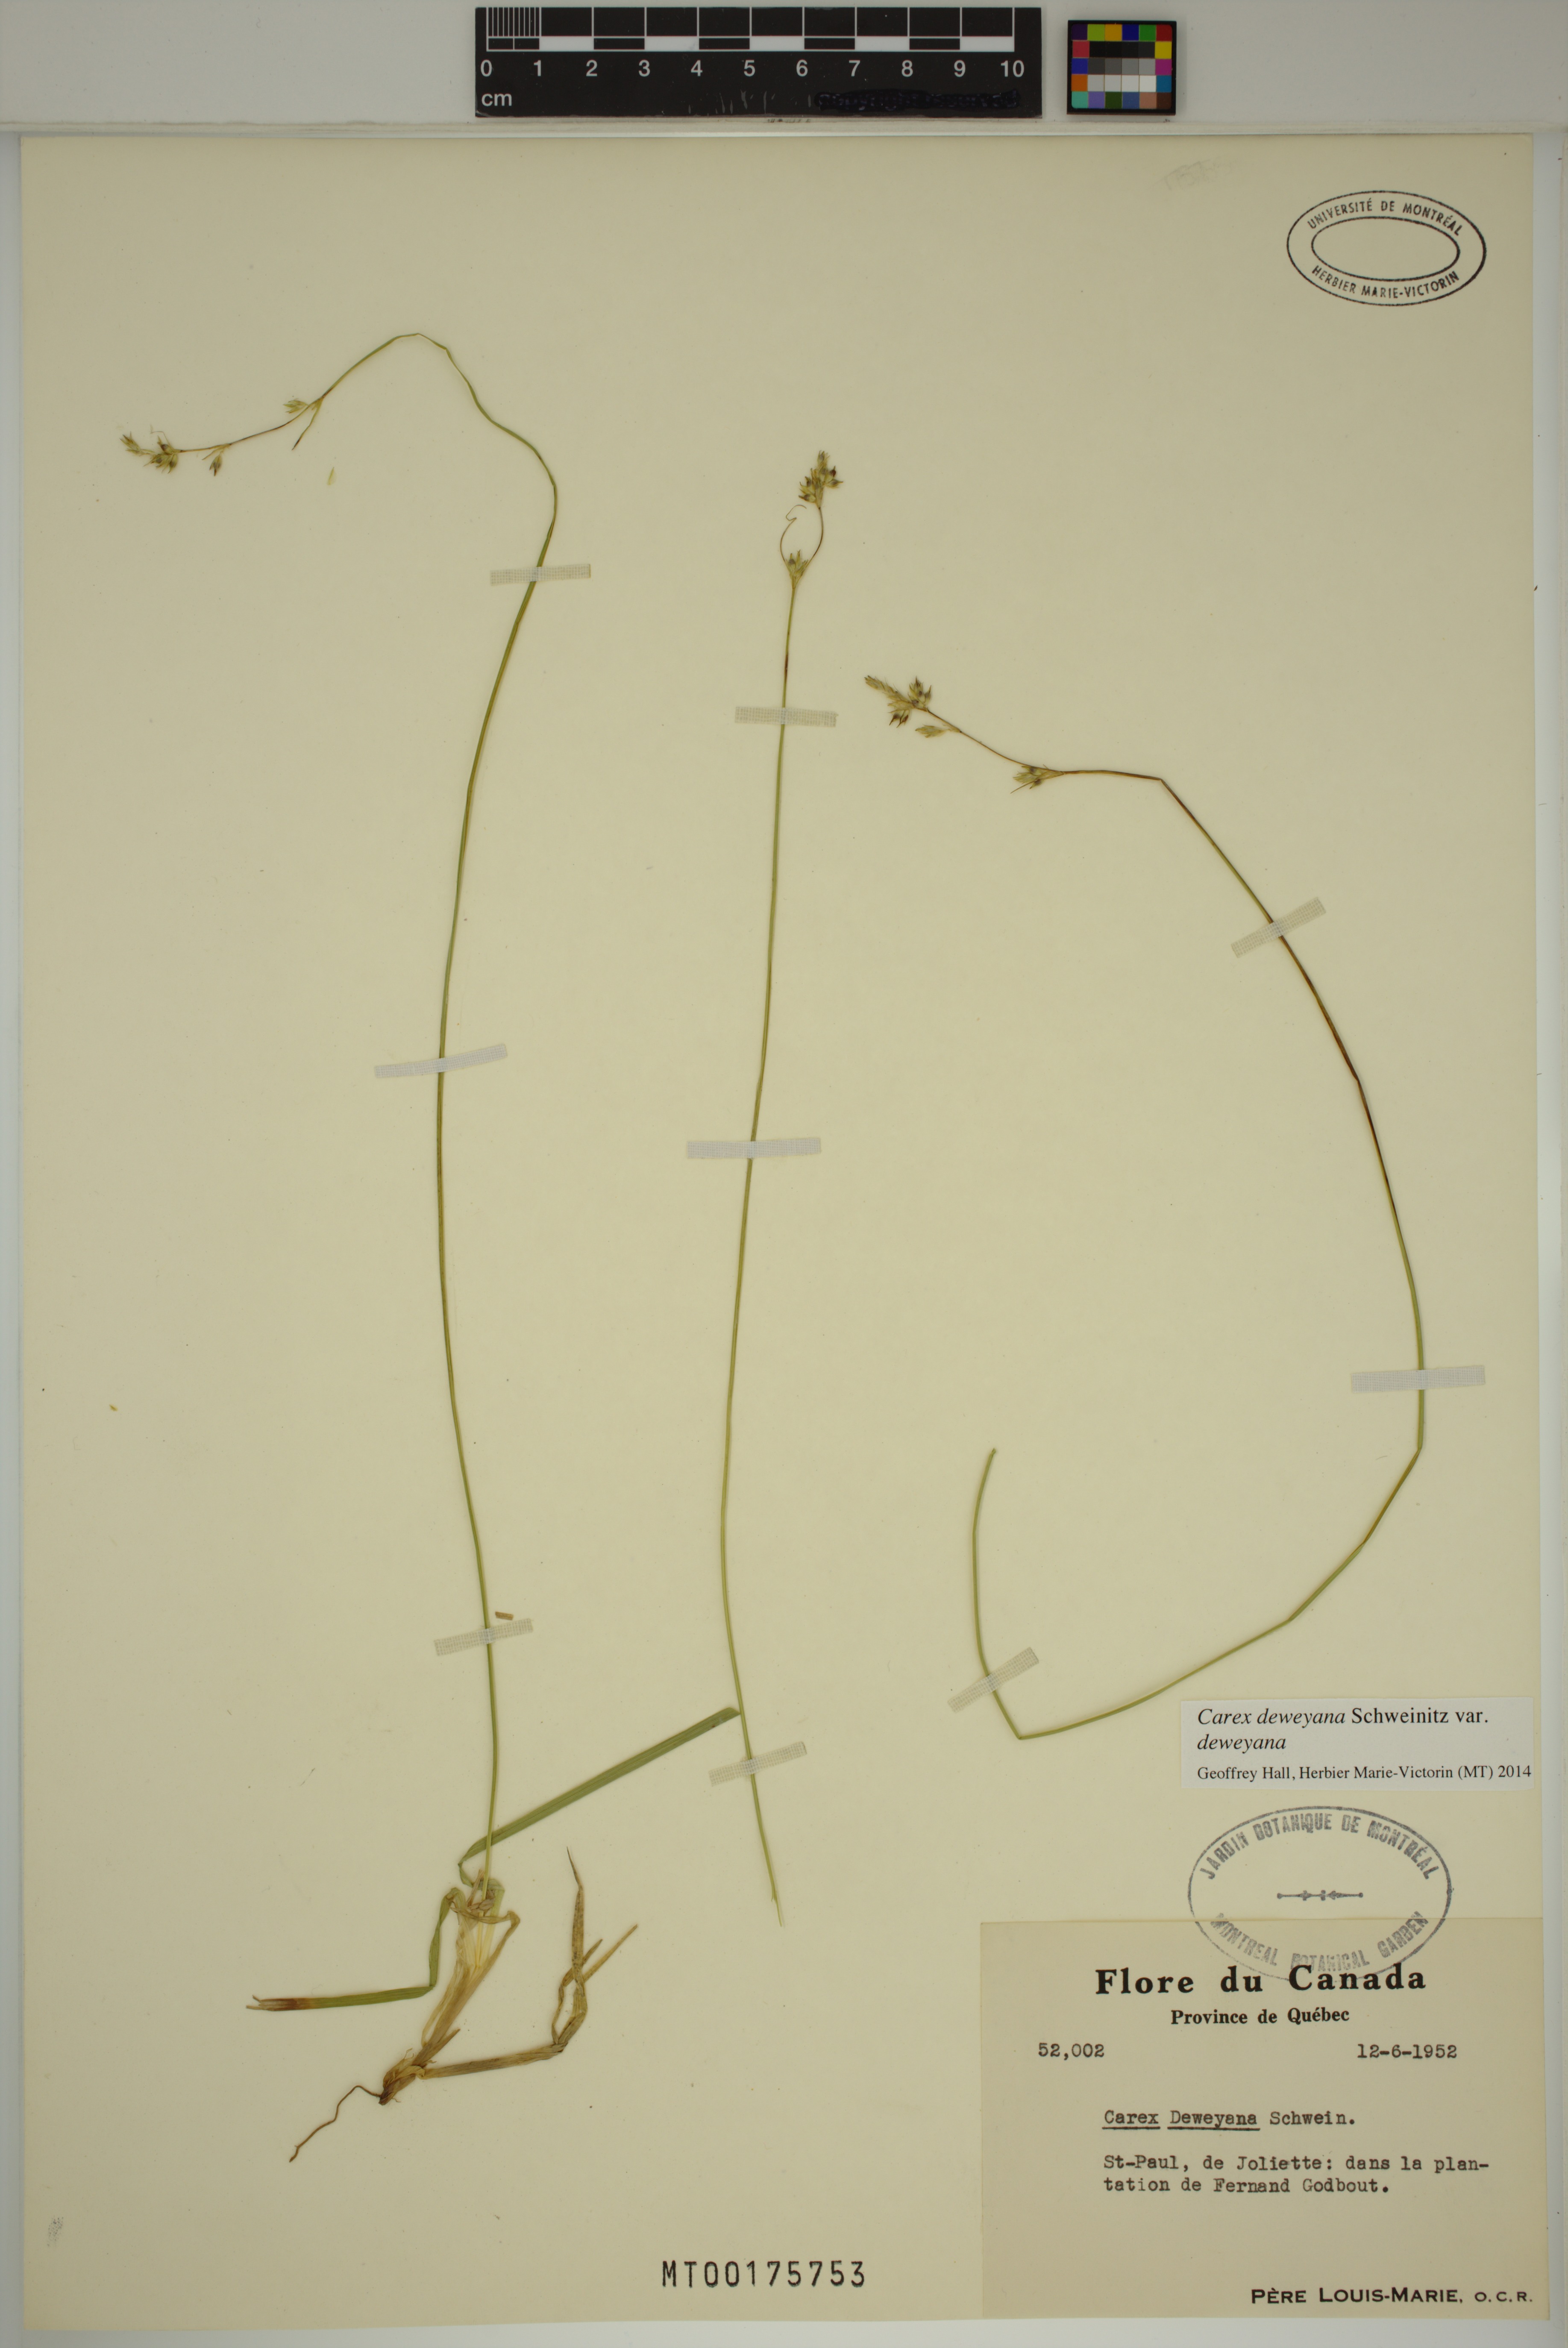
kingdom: Plantae
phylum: Tracheophyta
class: Liliopsida
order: Poales
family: Cyperaceae
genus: Carex
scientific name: Carex deweyana
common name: Dewey's sedge
